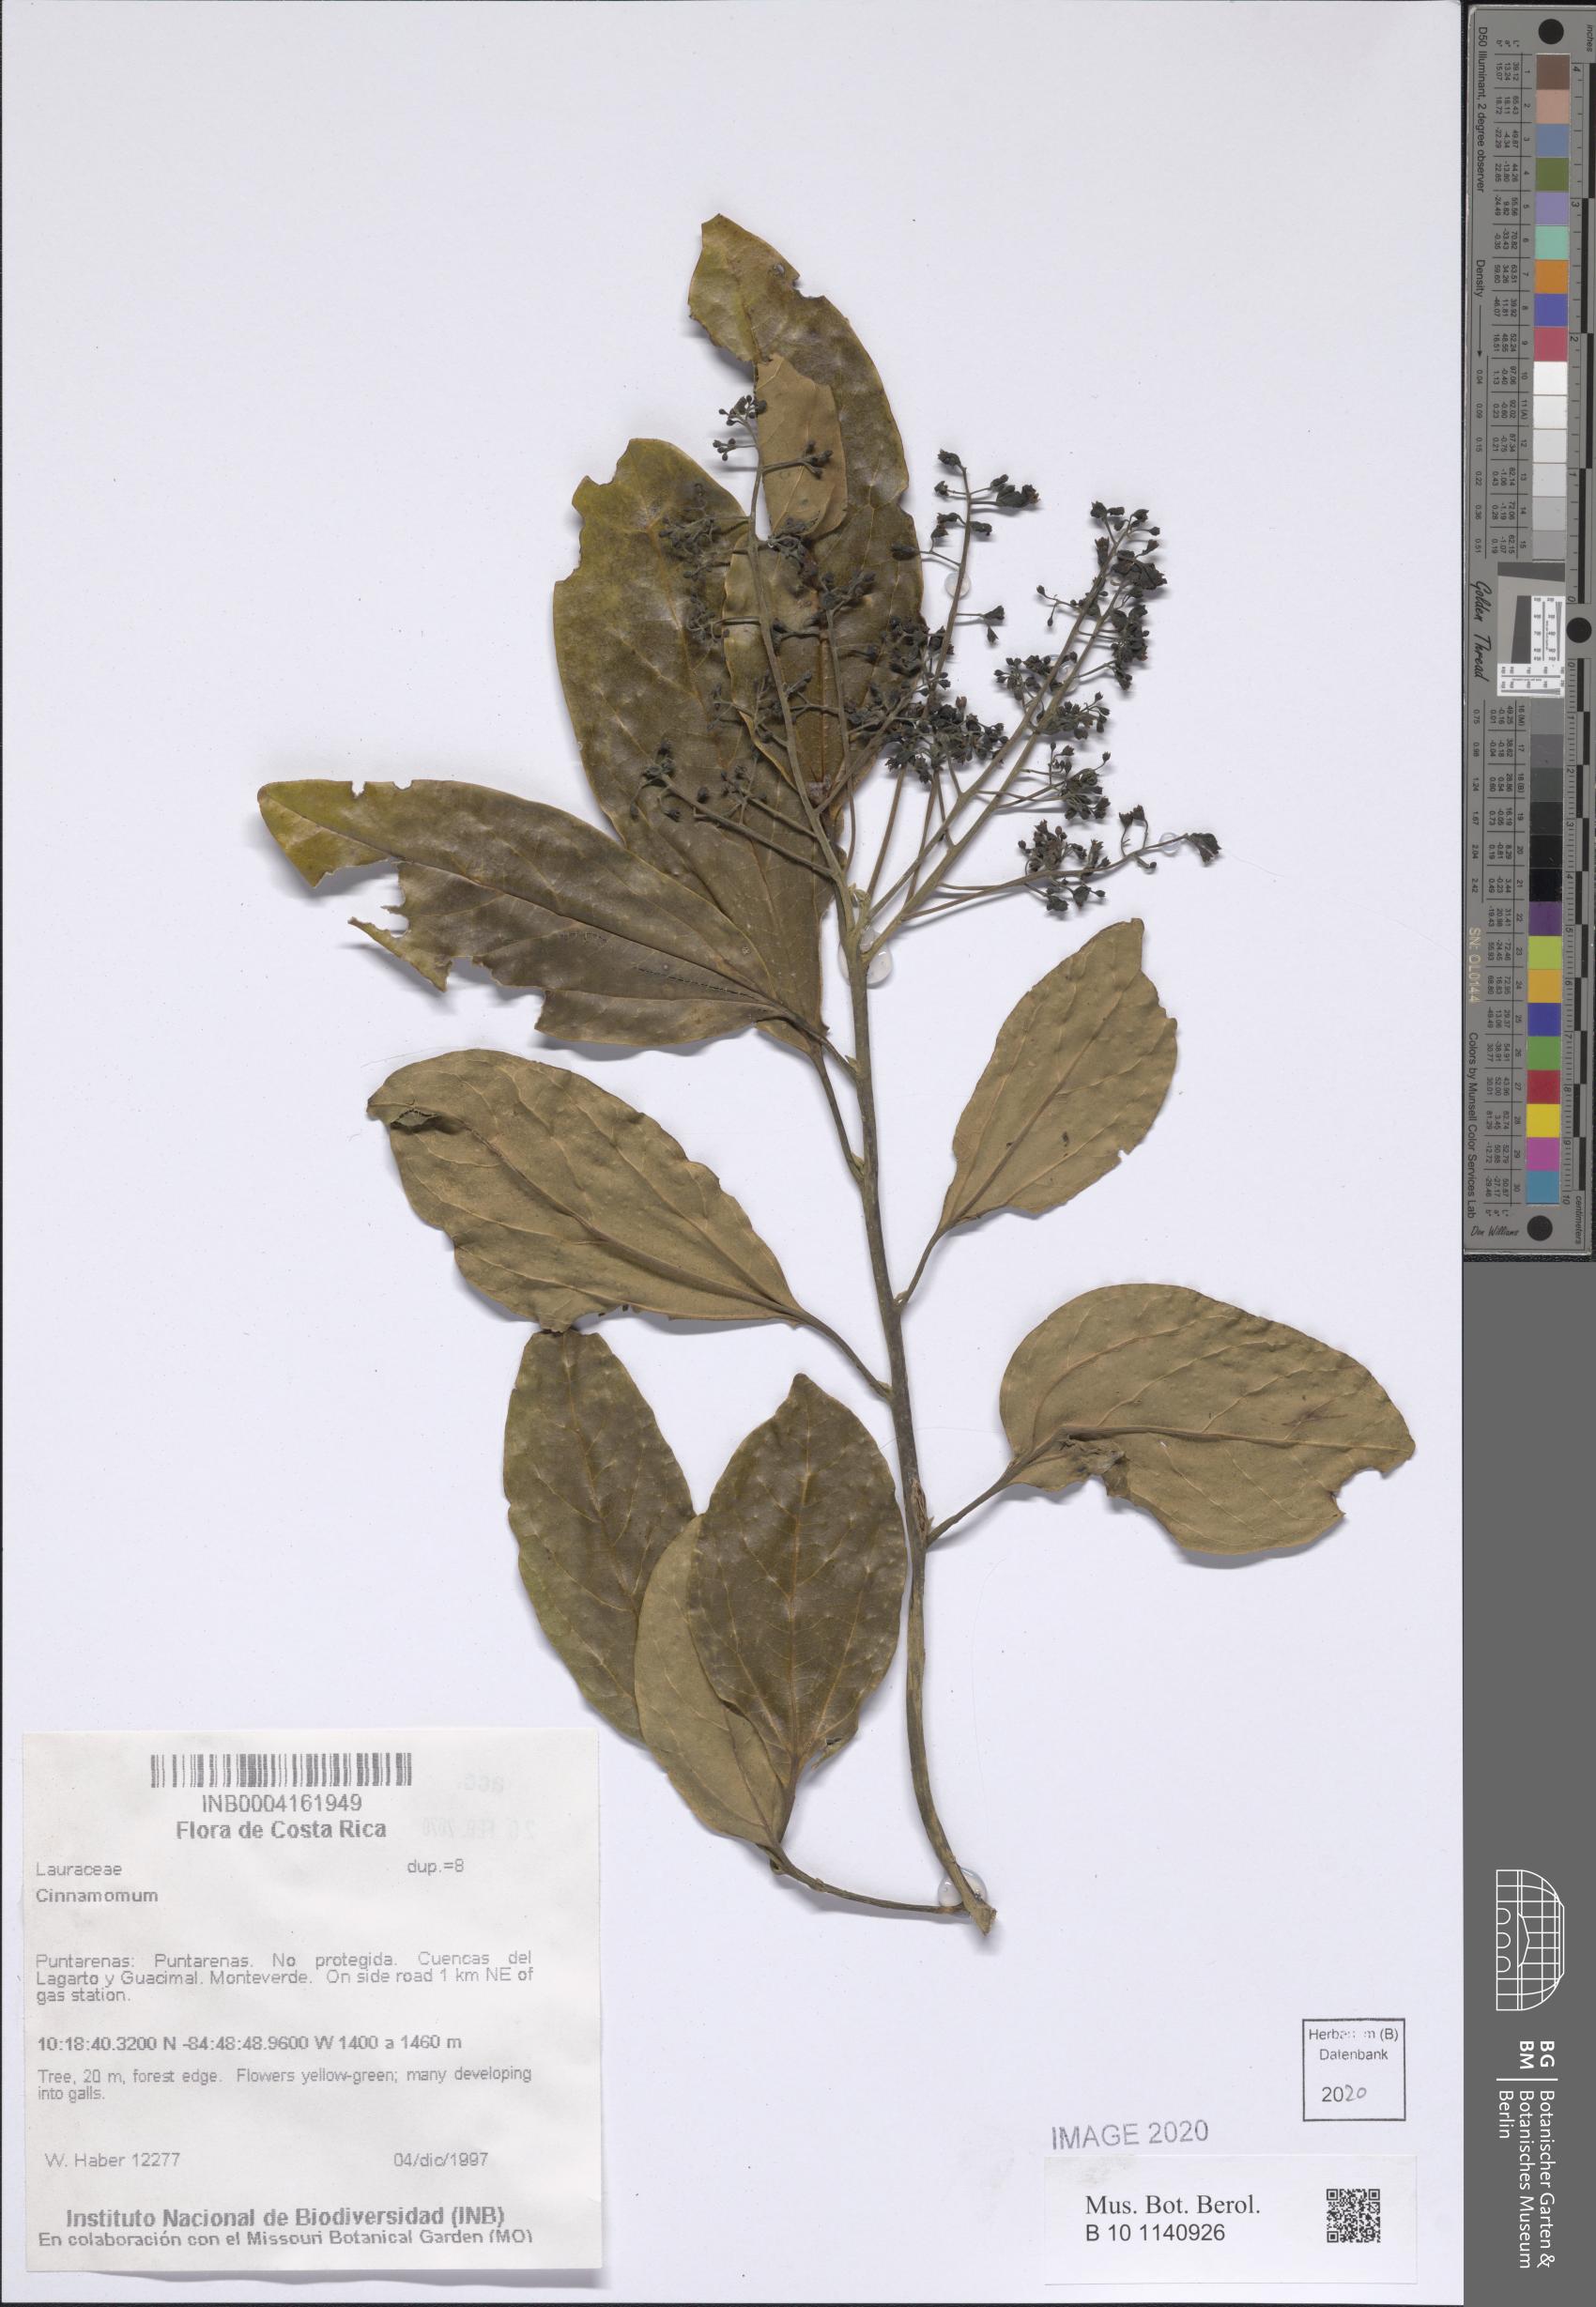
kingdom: Plantae
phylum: Tracheophyta
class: Magnoliopsida
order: Laurales
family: Lauraceae
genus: Cinnamomum
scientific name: Cinnamomum
